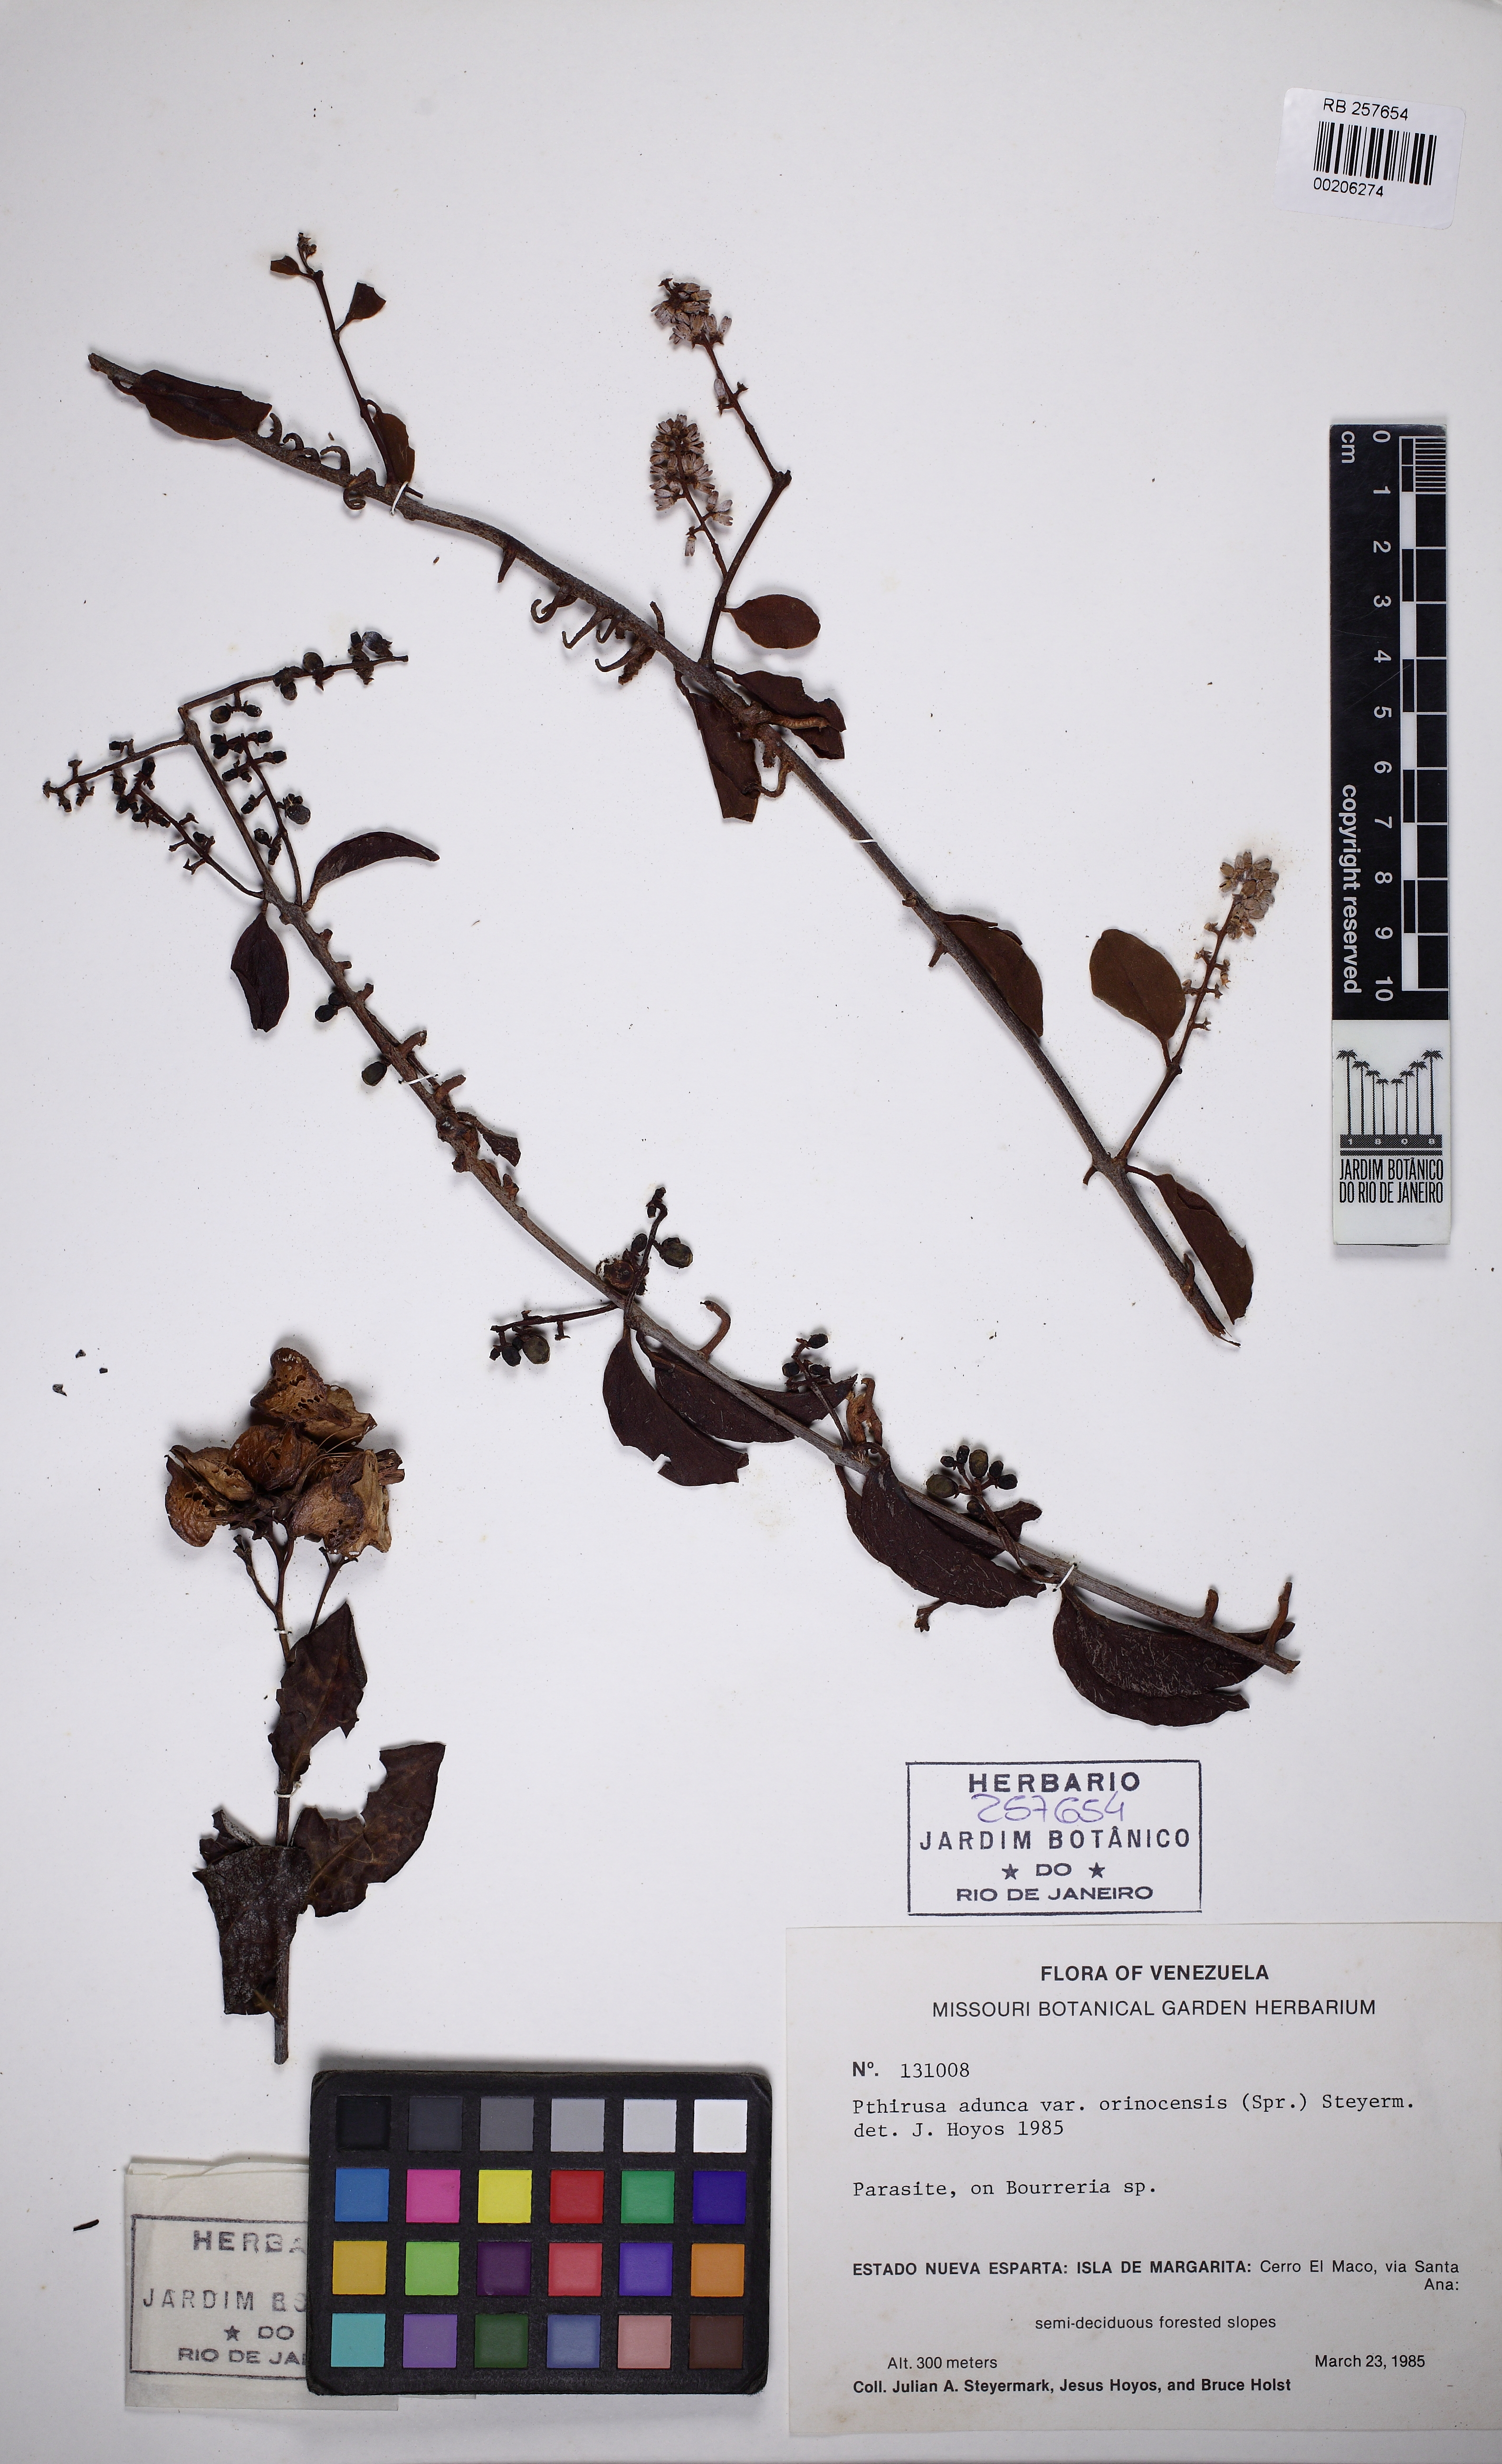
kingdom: Plantae
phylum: Tracheophyta
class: Magnoliopsida
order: Santalales
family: Loranthaceae
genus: Passovia
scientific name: Passovia pedunculata
